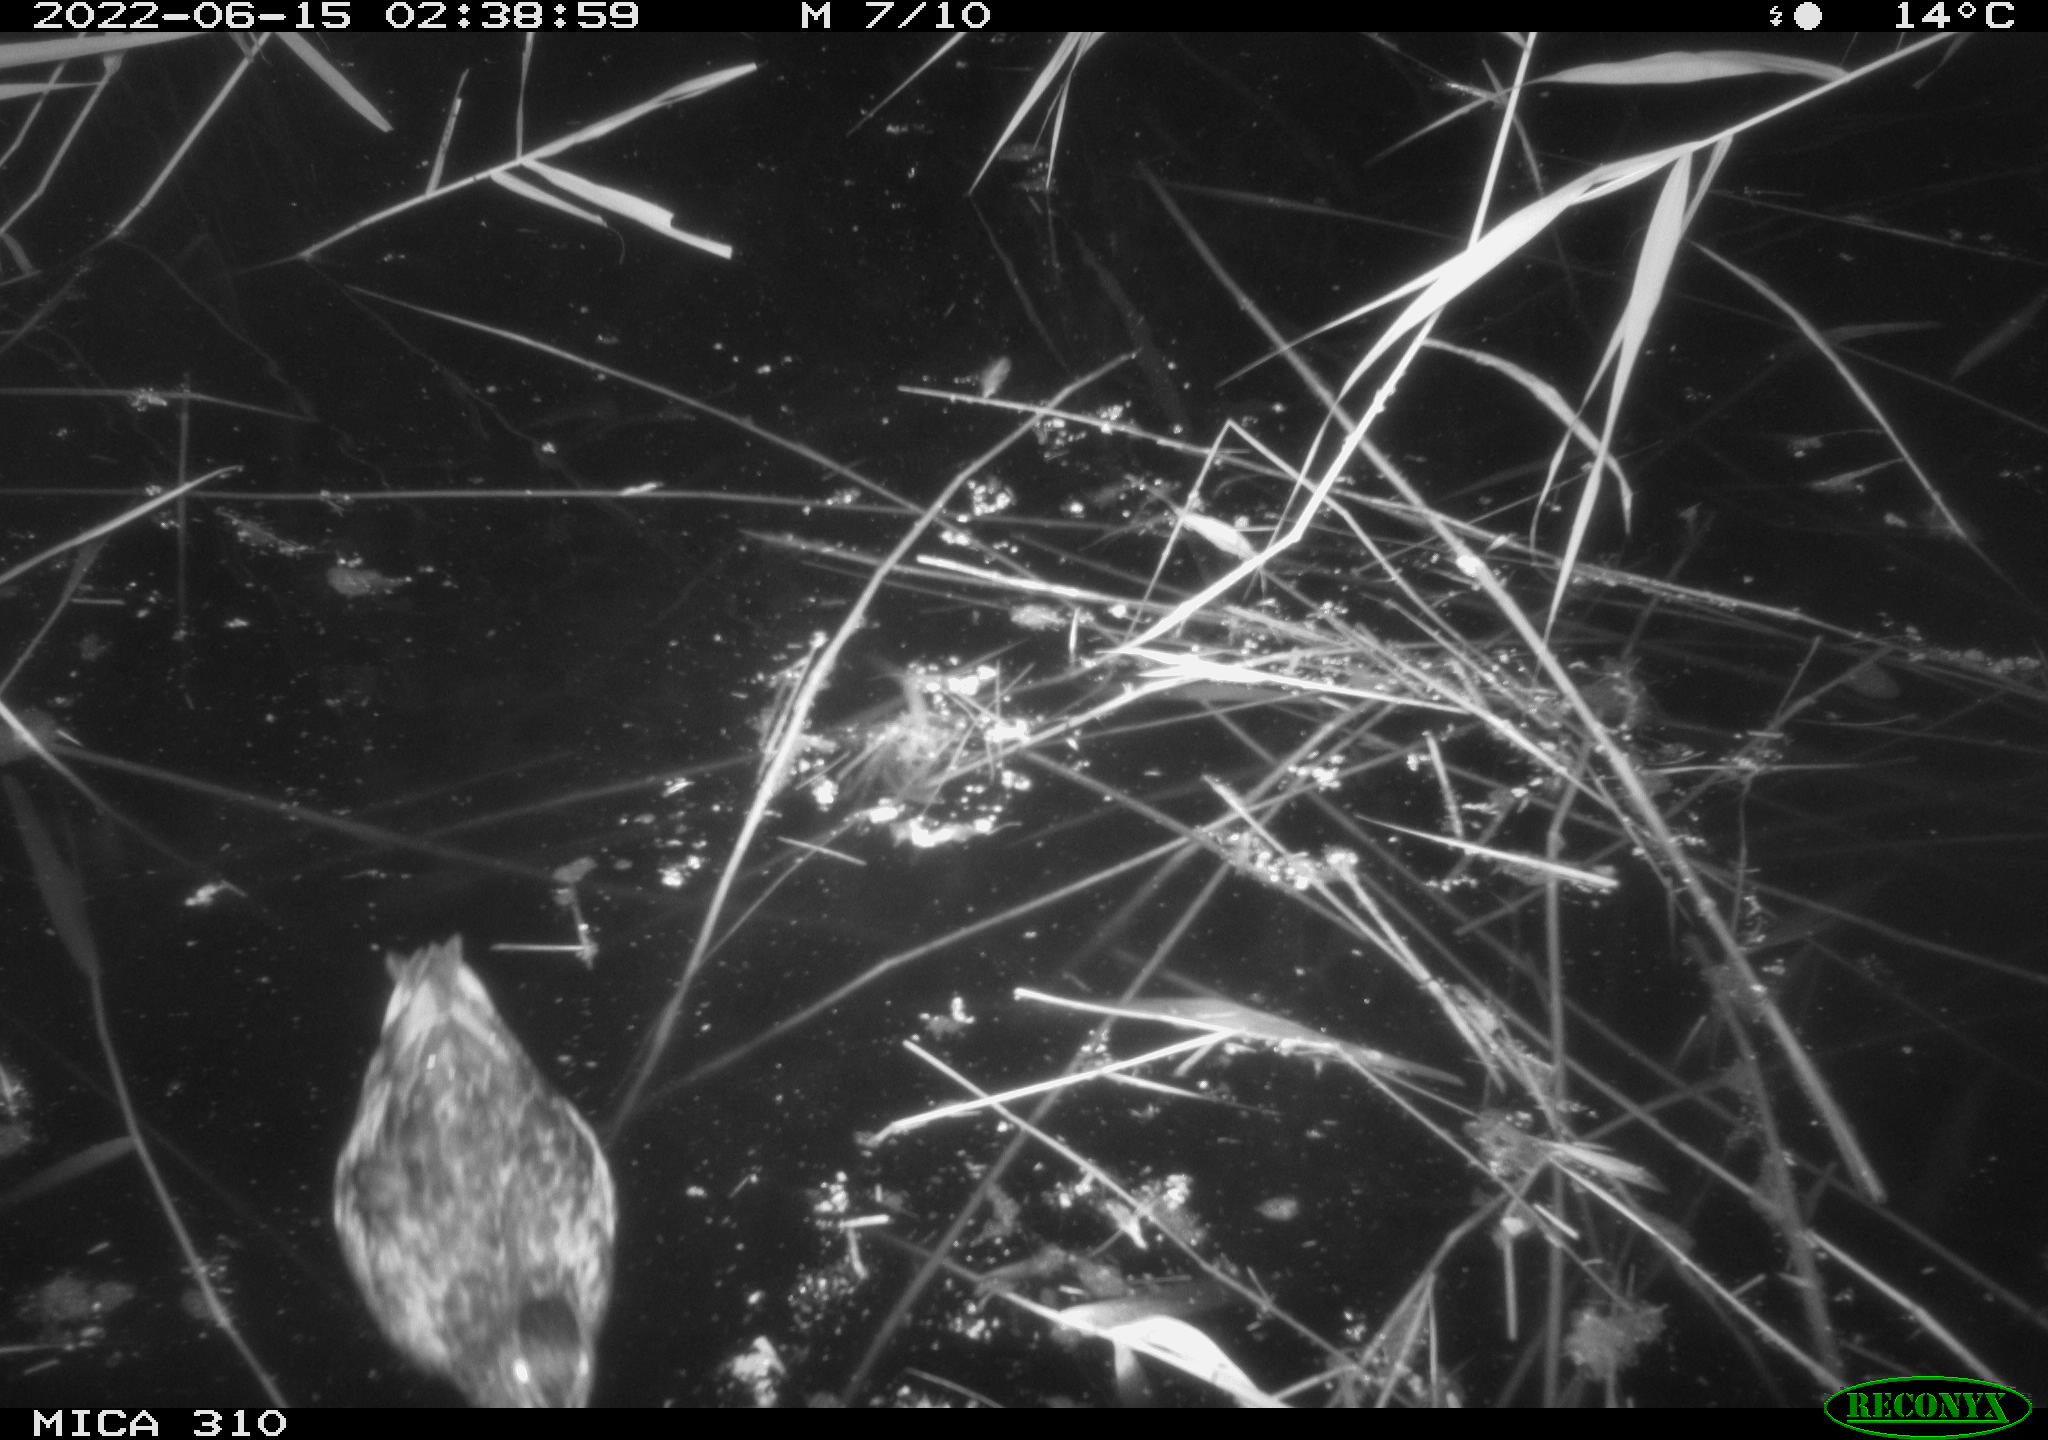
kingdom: Animalia
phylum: Chordata
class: Aves
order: Anseriformes
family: Anatidae
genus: Anas
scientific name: Anas platyrhynchos
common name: Mallard
